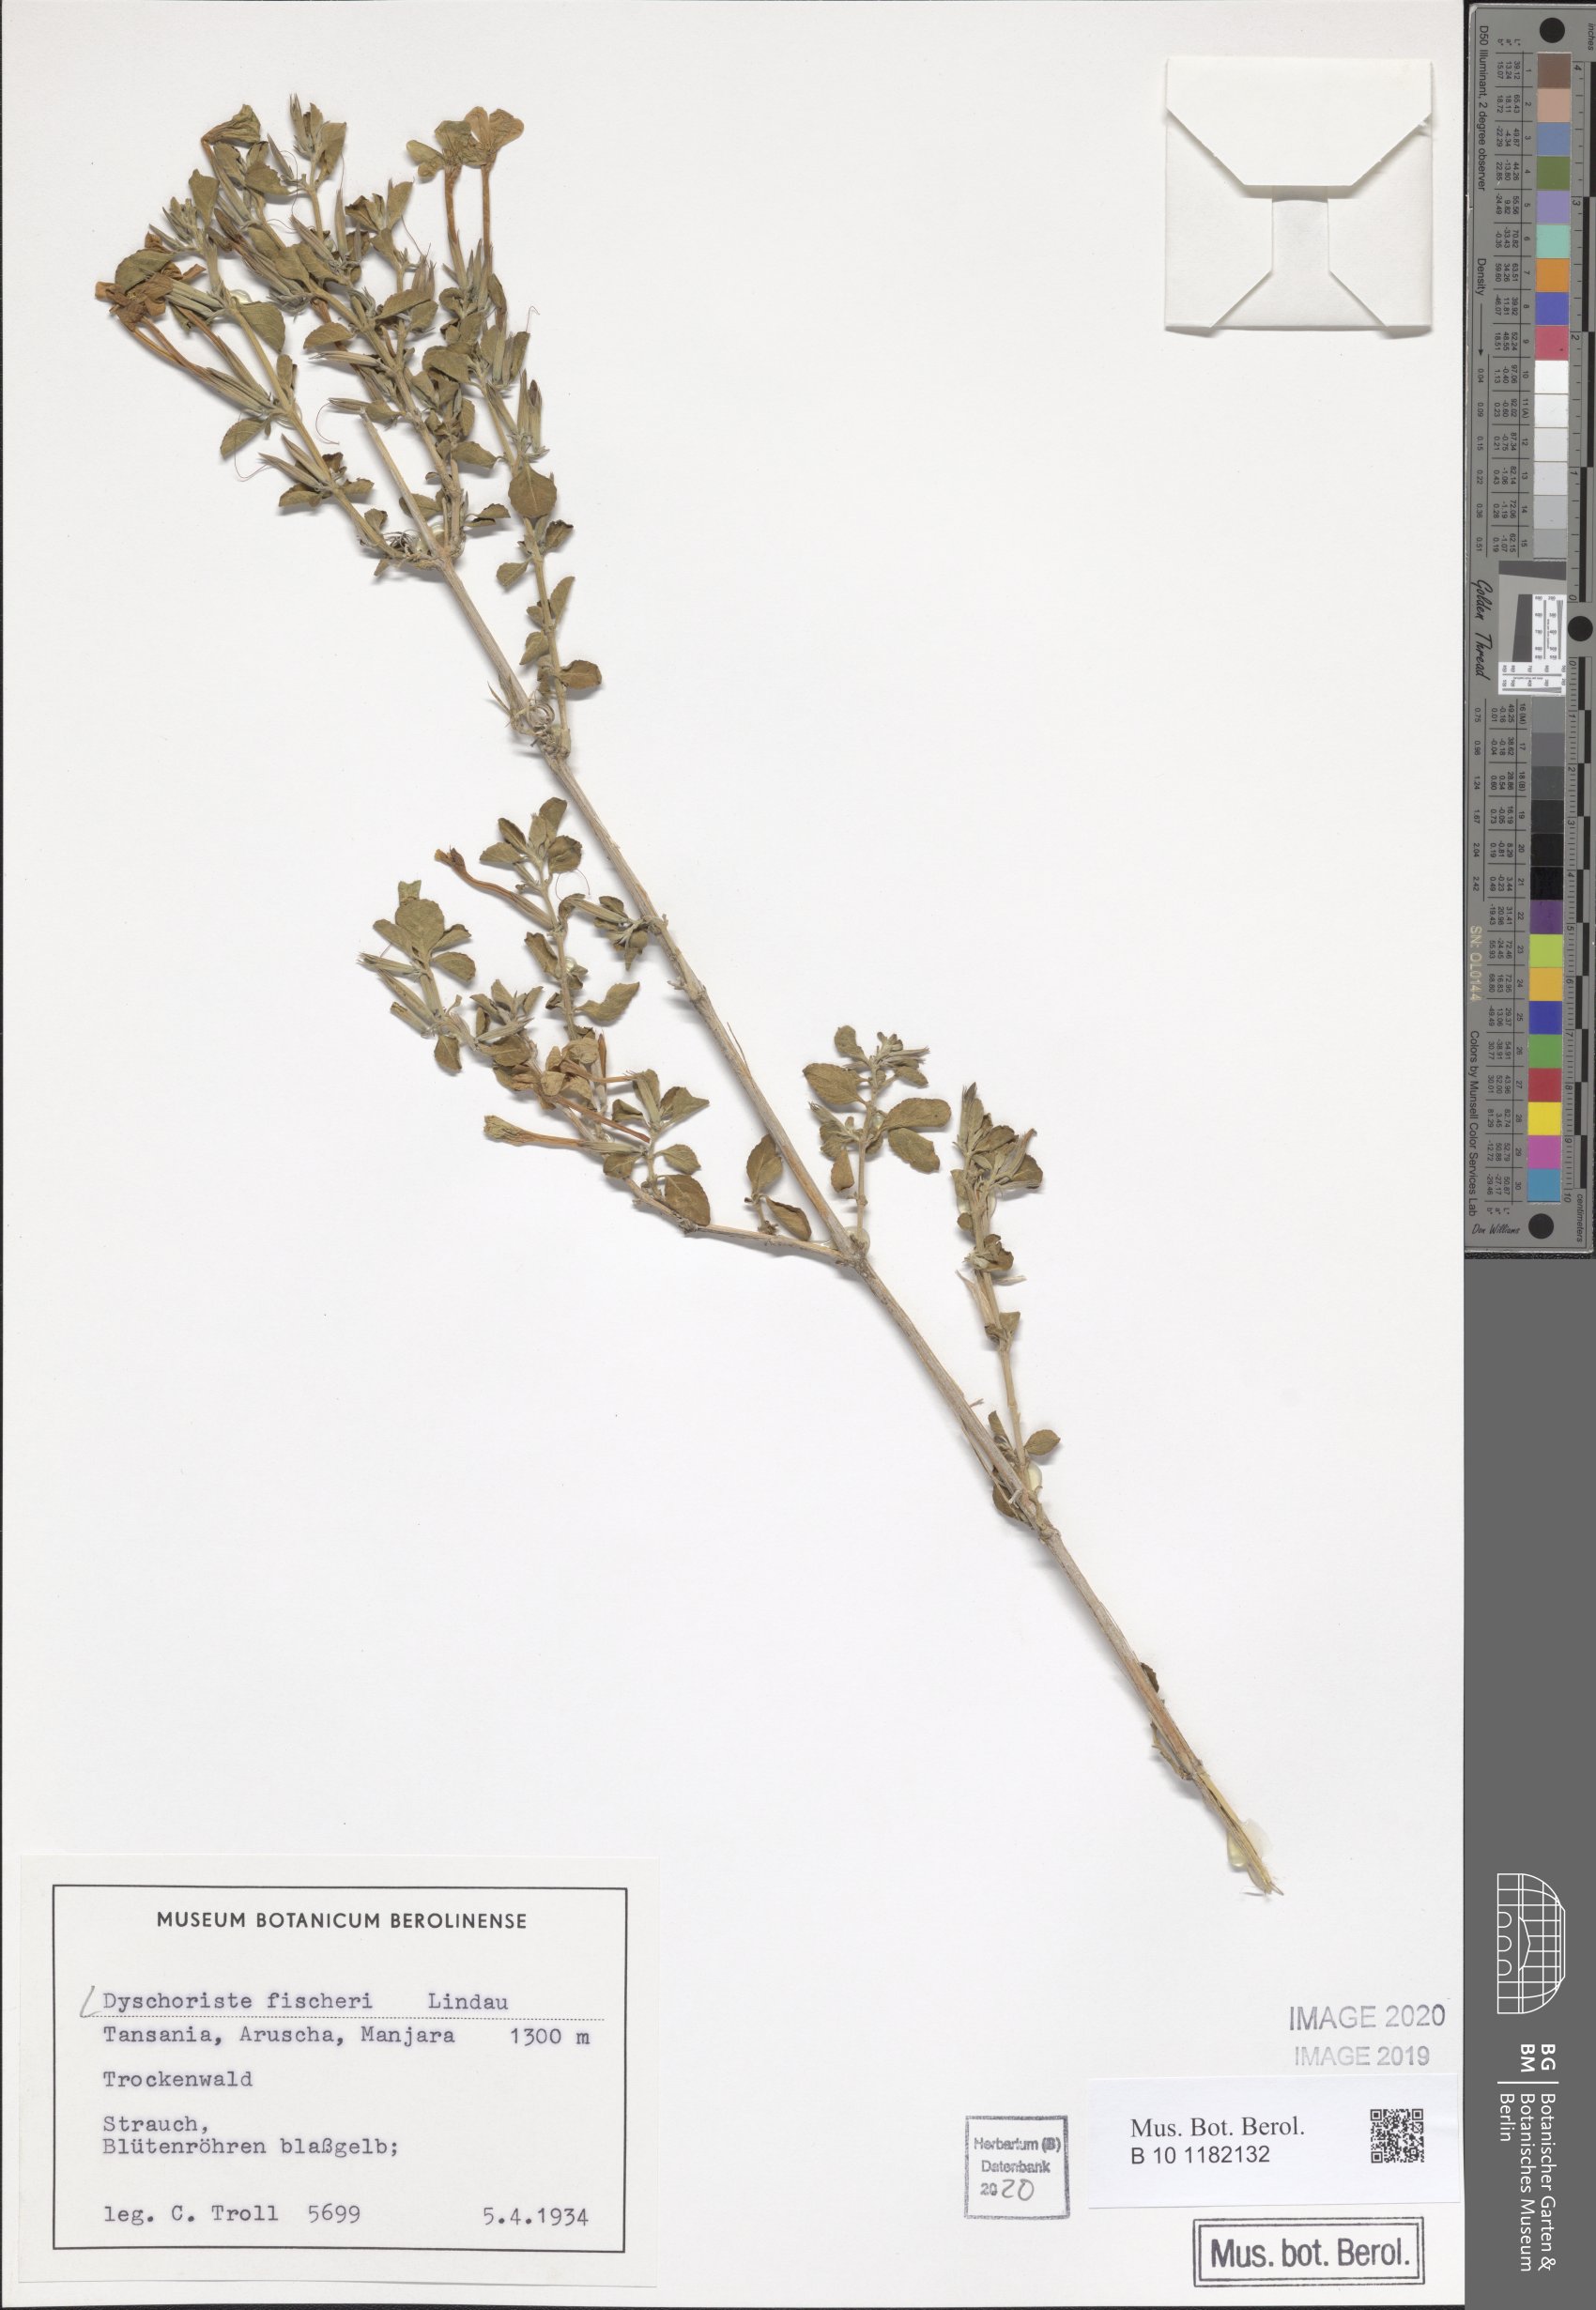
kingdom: Plantae
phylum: Tracheophyta
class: Magnoliopsida
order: Lamiales
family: Acanthaceae
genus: Dyschoriste
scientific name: Dyschoriste hildebrandtii
